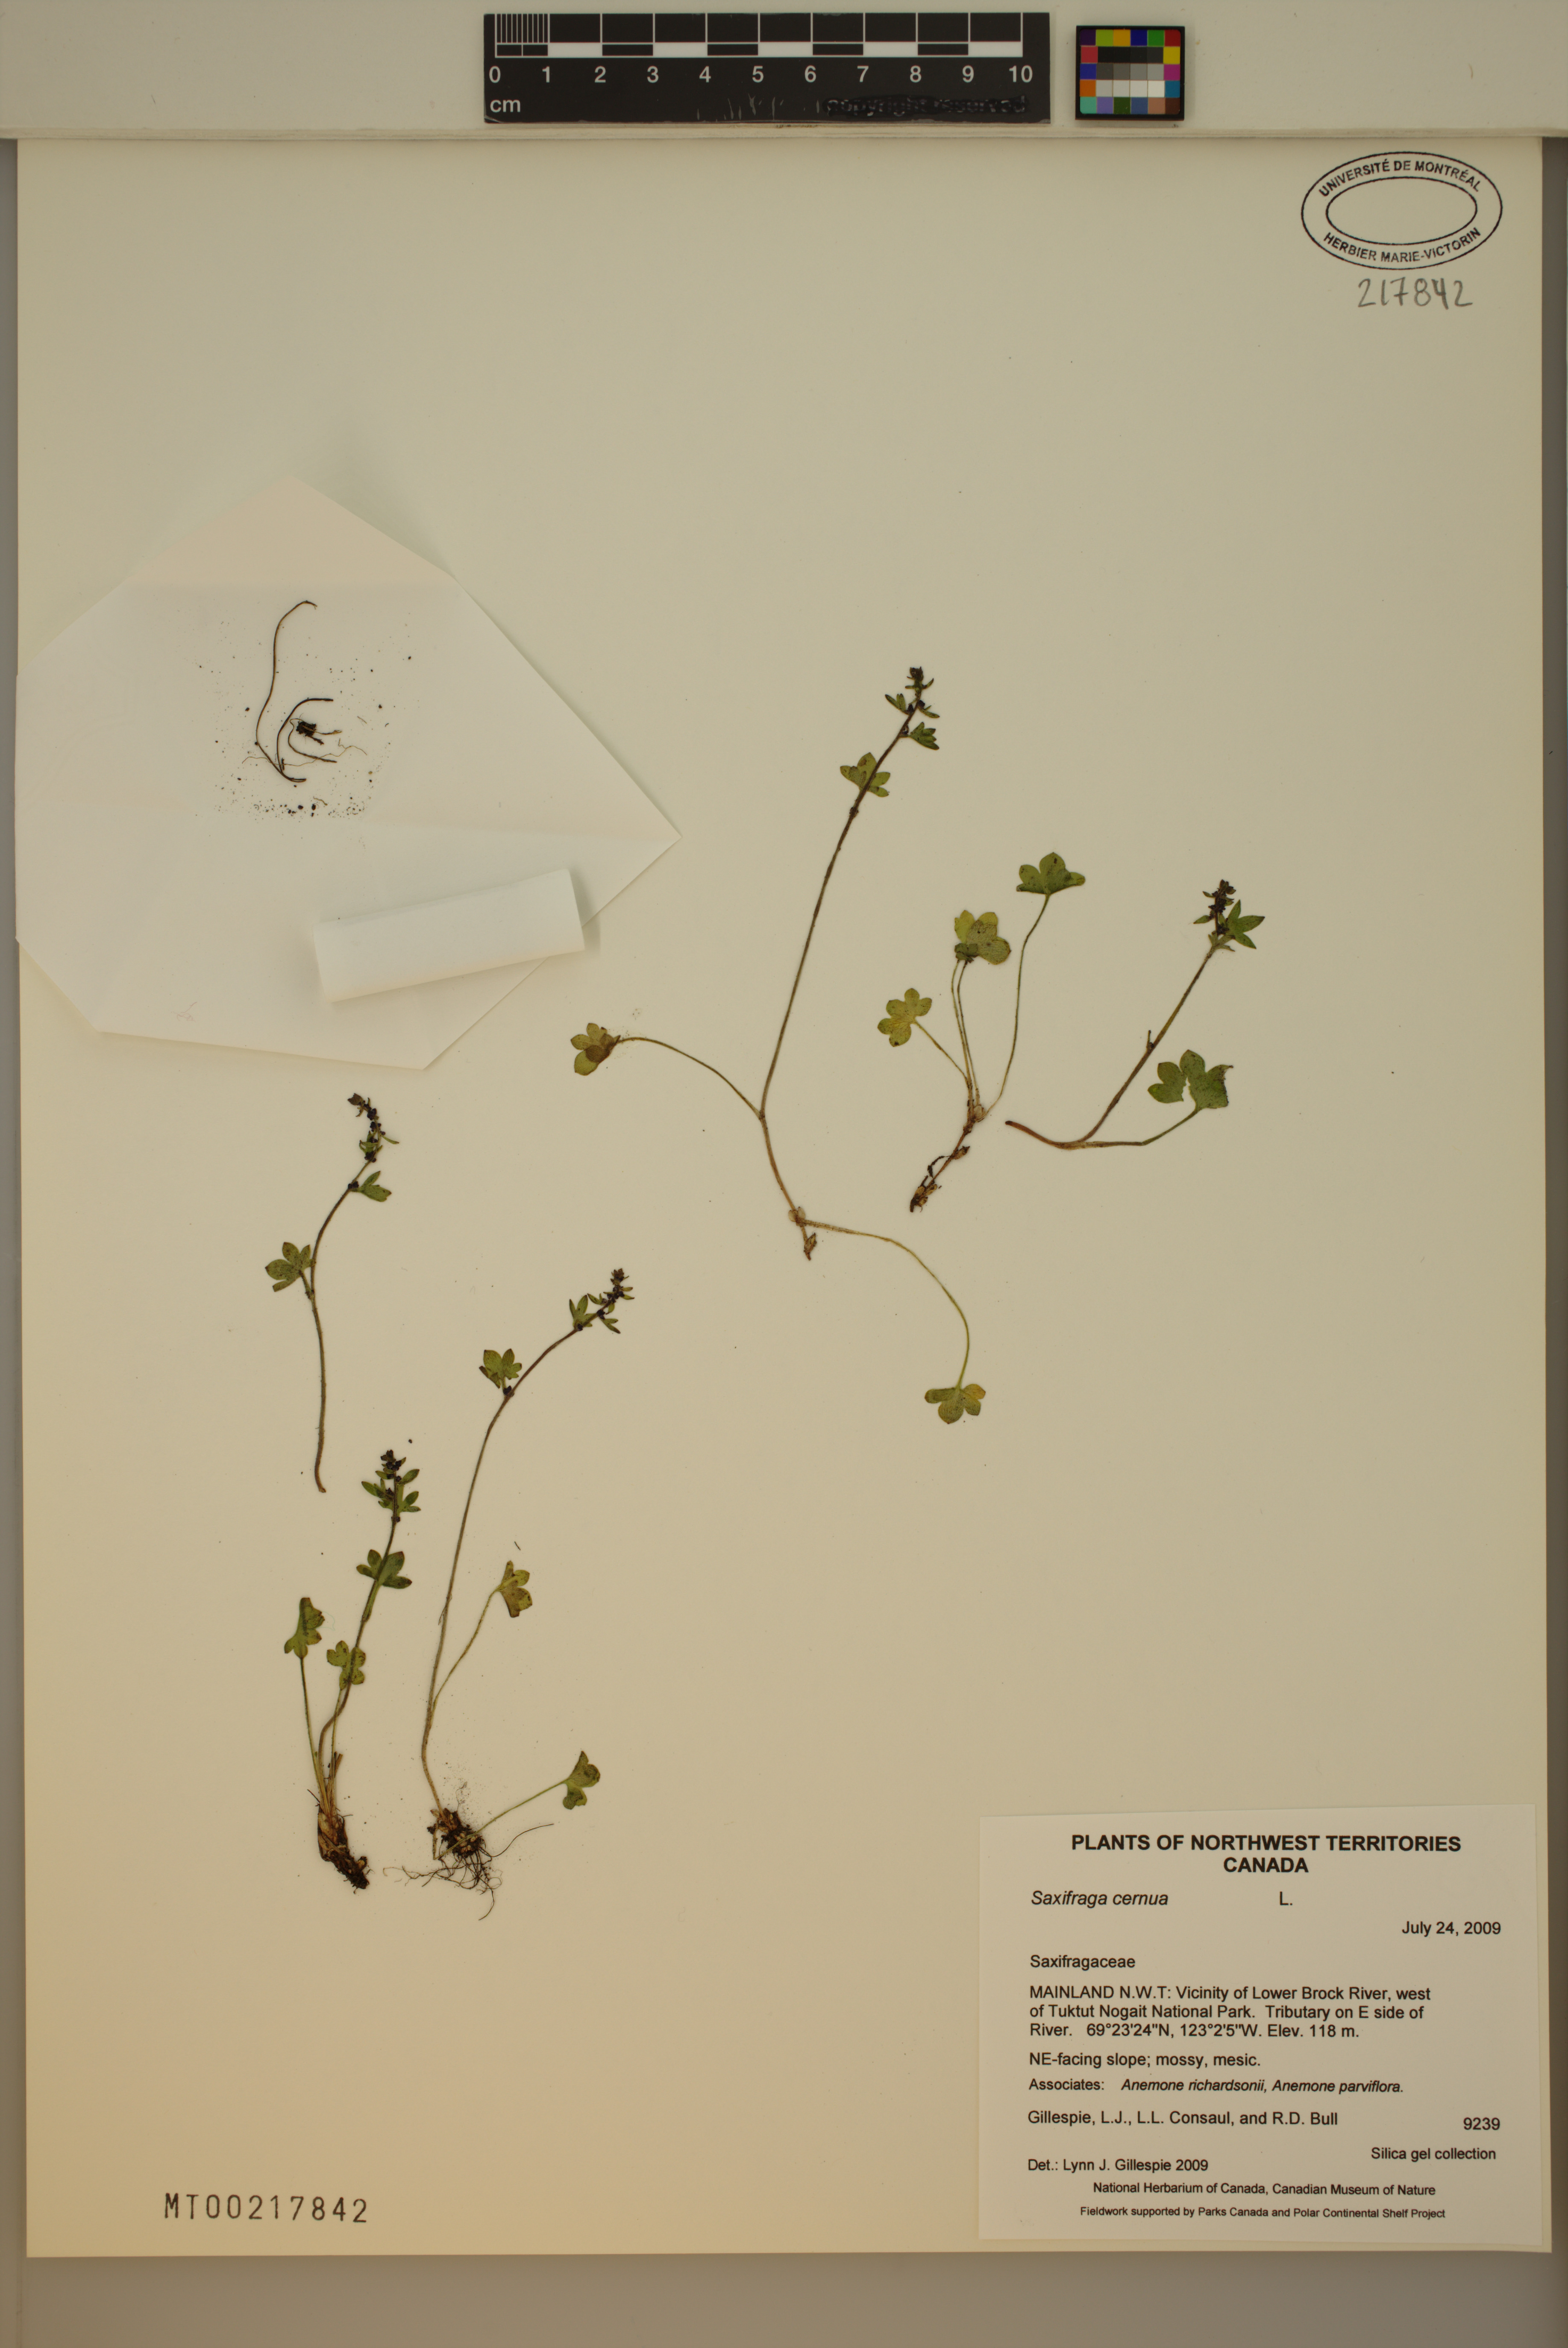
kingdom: Plantae
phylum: Tracheophyta
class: Magnoliopsida
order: Saxifragales
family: Saxifragaceae
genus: Saxifraga
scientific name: Saxifraga cernua
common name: Drooping saxifrage
